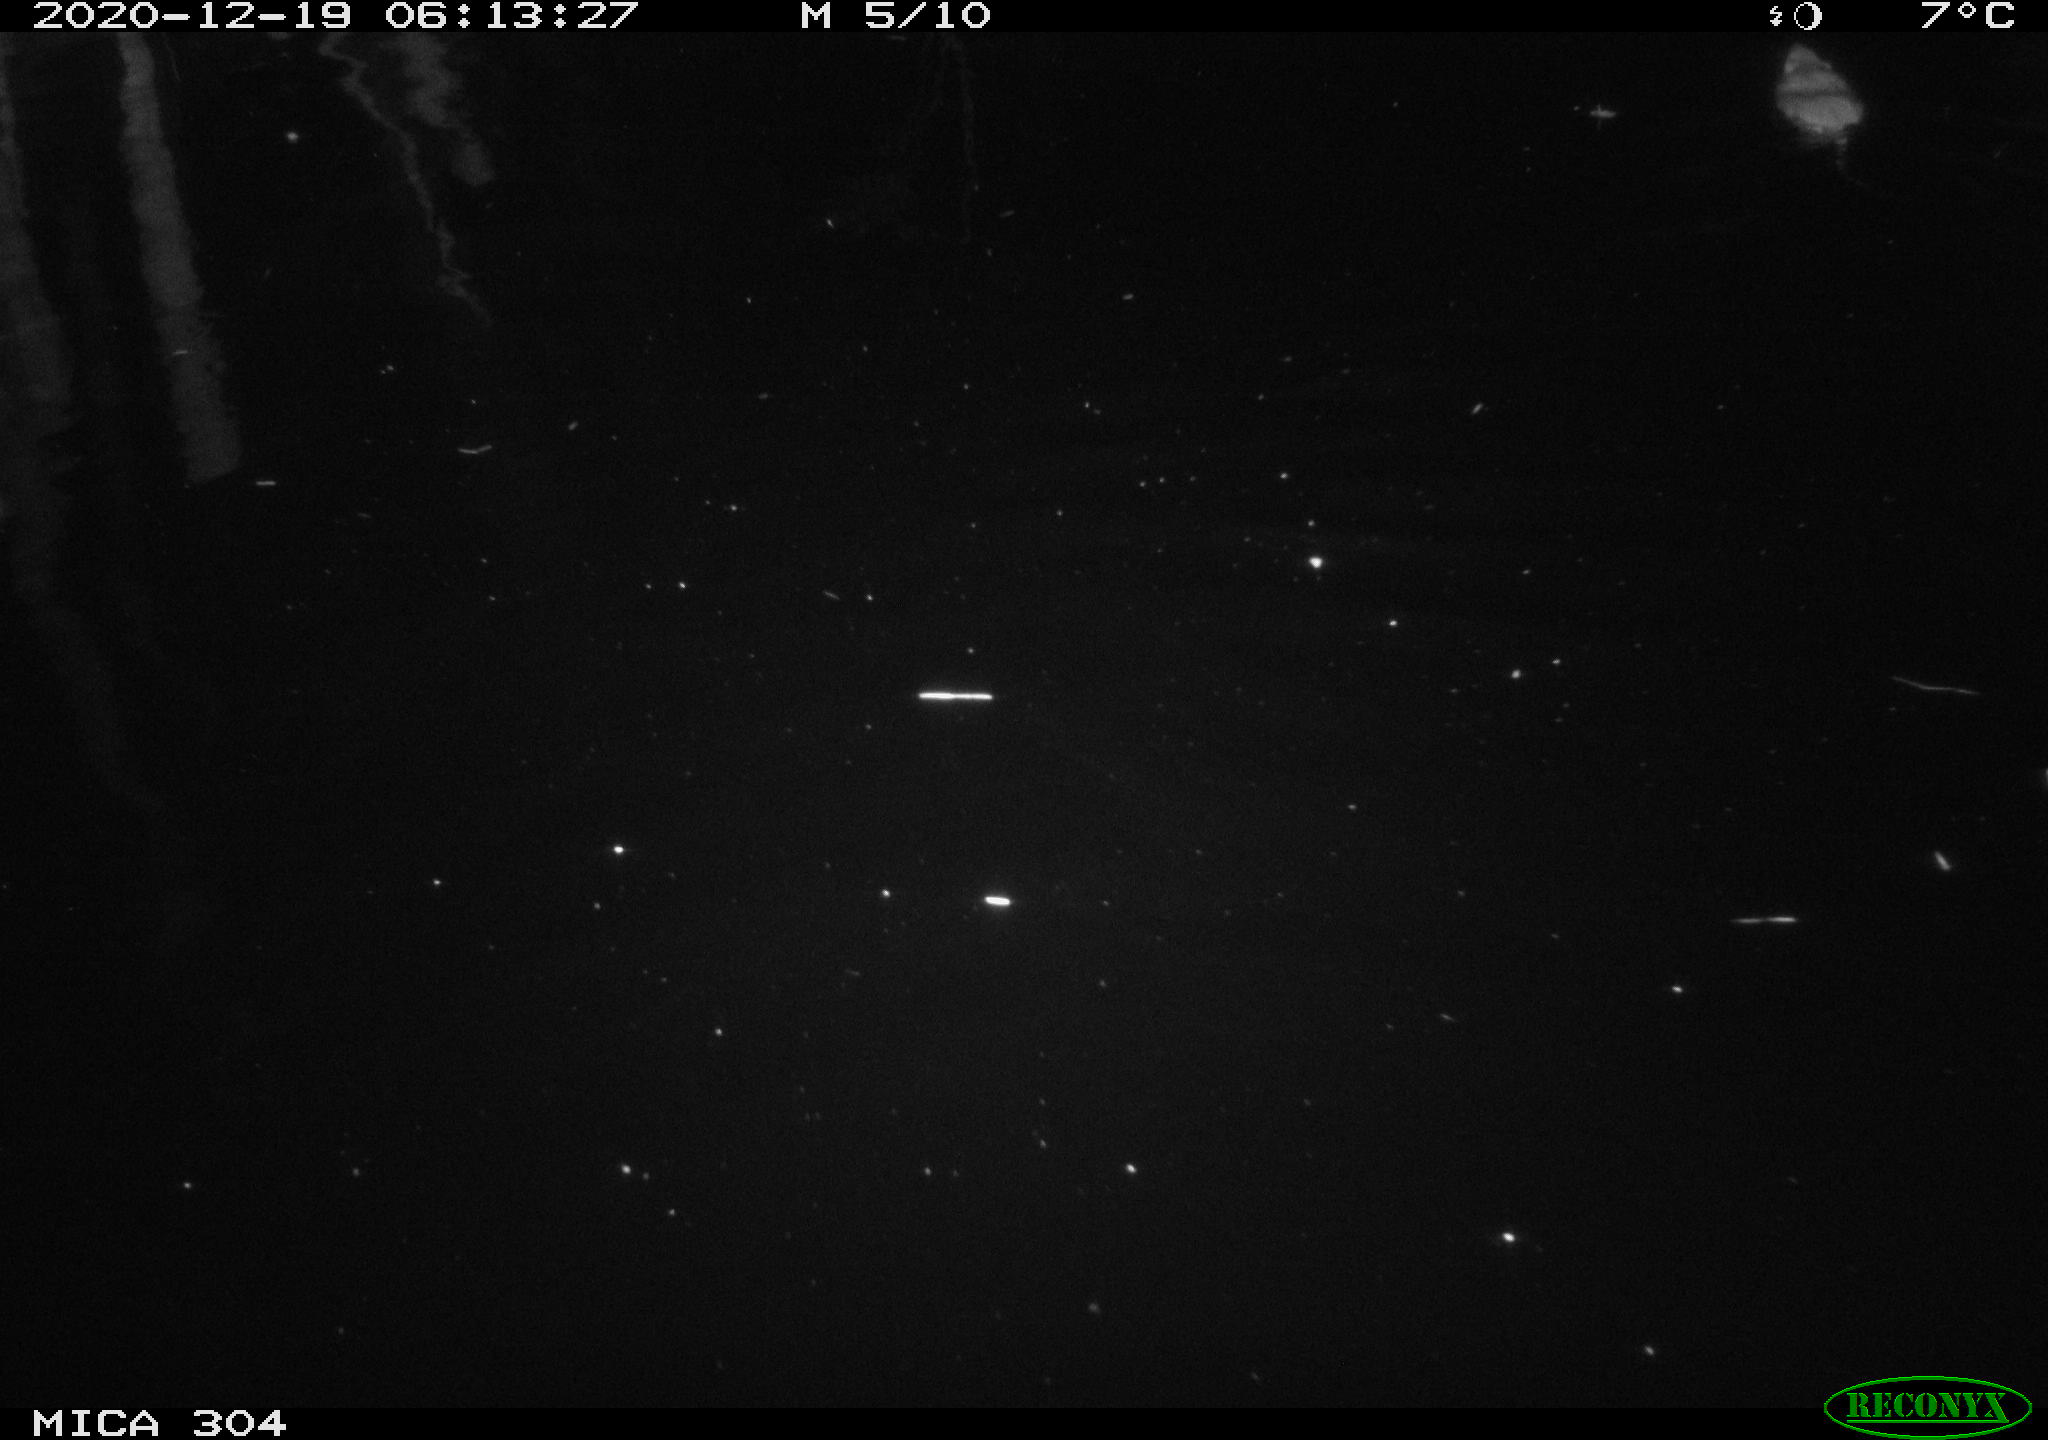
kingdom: Animalia
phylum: Chordata
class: Mammalia
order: Rodentia
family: Muridae
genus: Rattus
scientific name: Rattus norvegicus
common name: Brown rat
